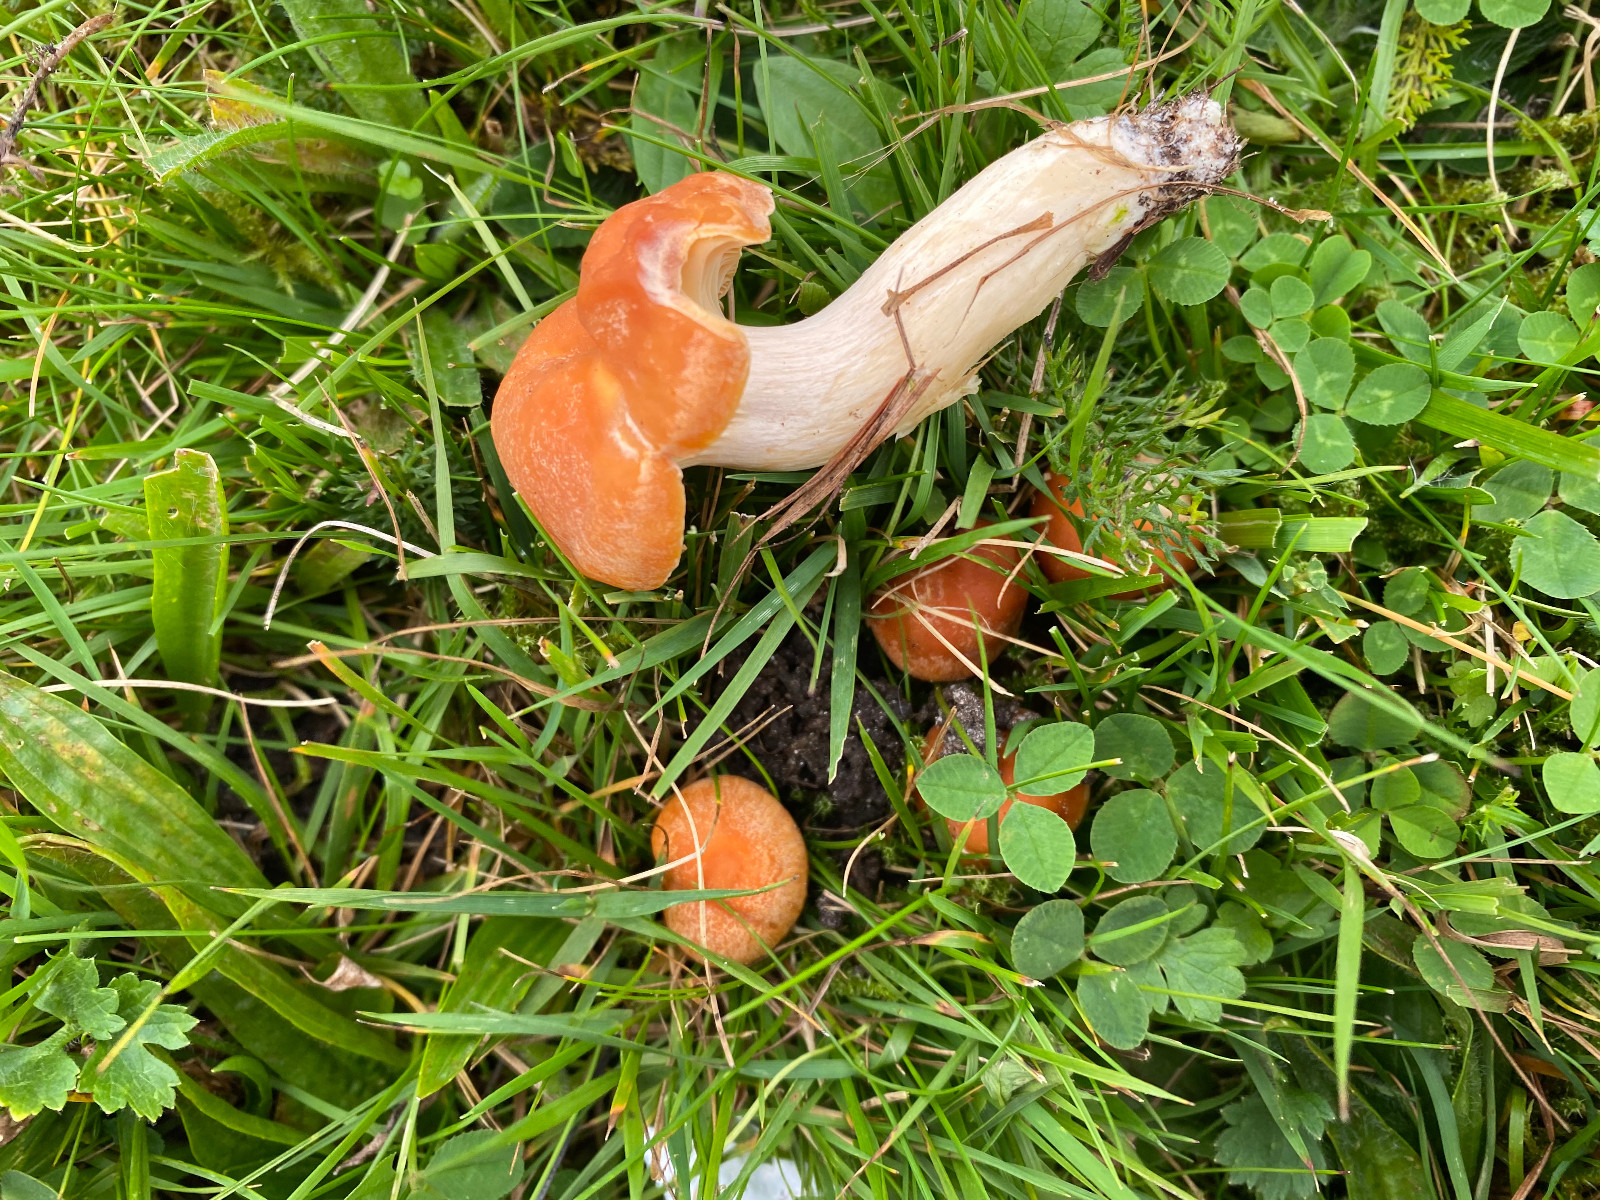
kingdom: Fungi
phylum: Basidiomycota
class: Agaricomycetes
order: Agaricales
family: Hygrophoraceae
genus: Cuphophyllus
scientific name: Cuphophyllus pratensis
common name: eng-vokshat
